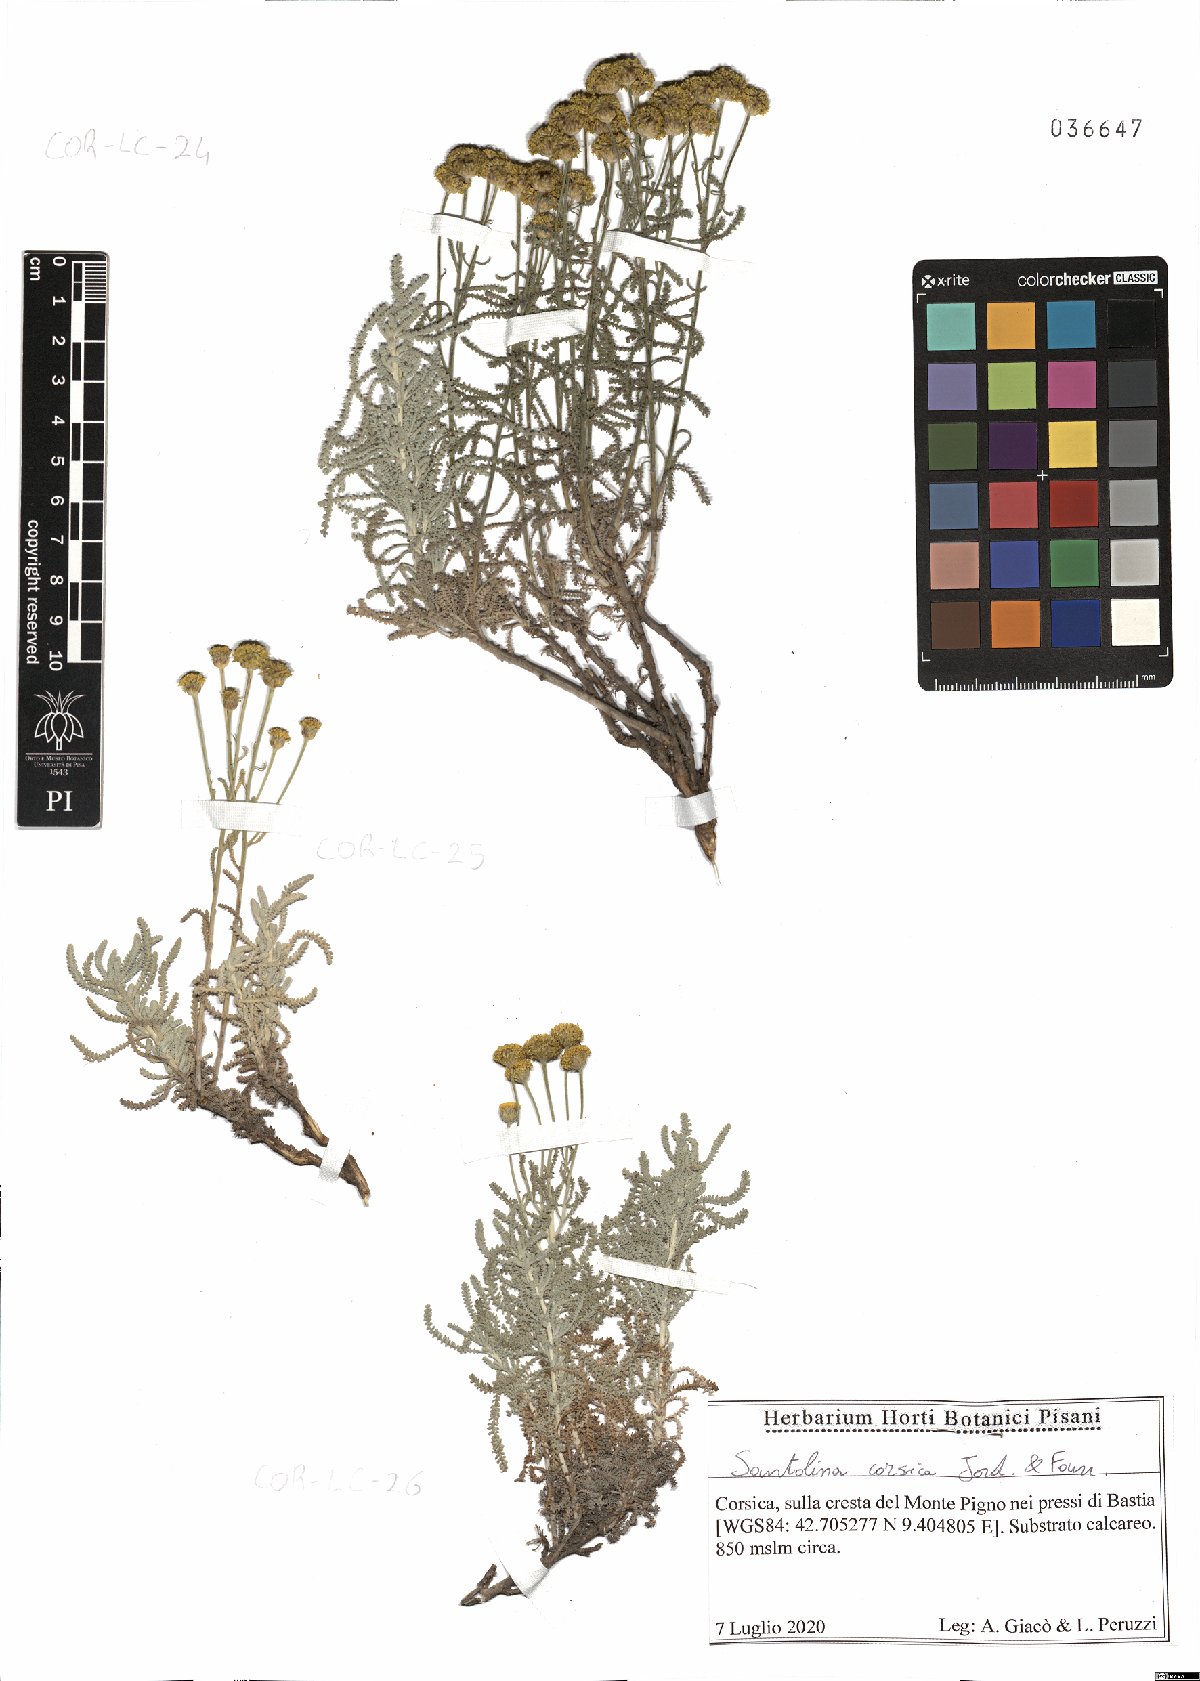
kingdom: Plantae
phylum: Tracheophyta
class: Magnoliopsida
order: Asterales
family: Asteraceae
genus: Santolina
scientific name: Santolina corsica
